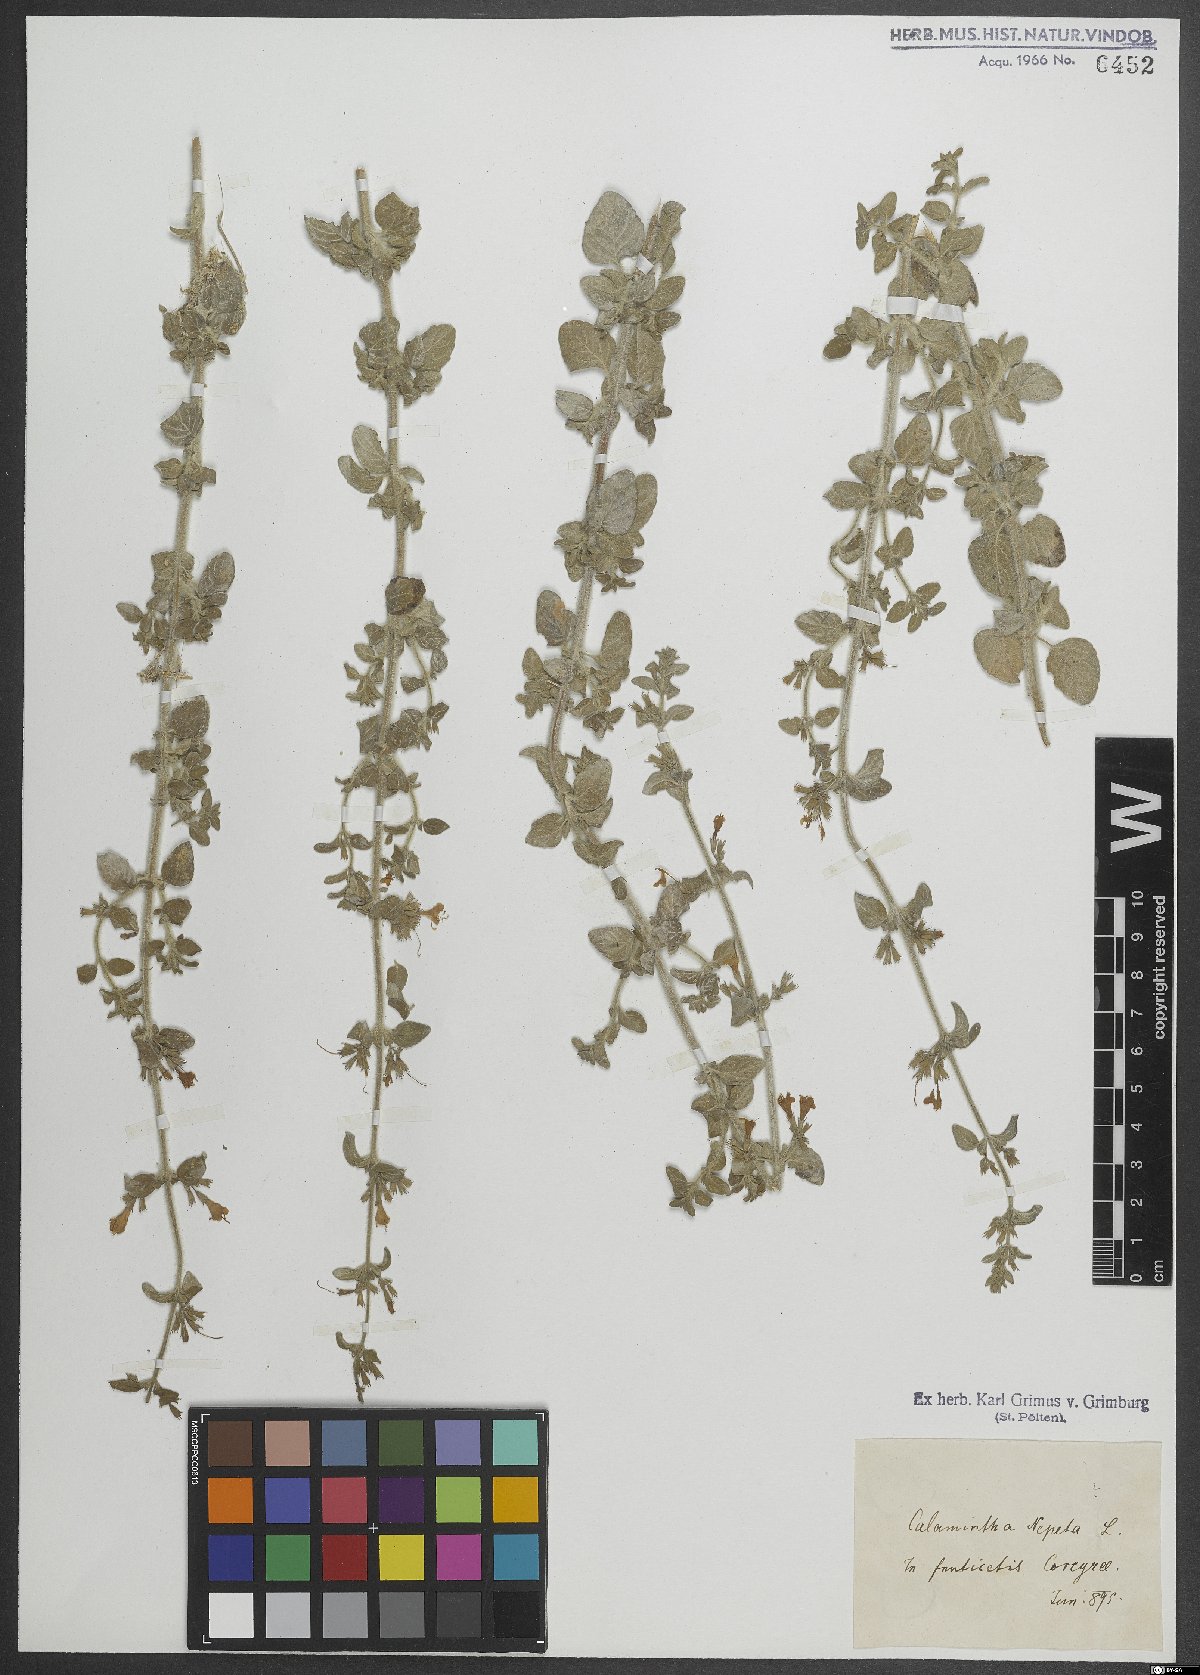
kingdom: Plantae
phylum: Tracheophyta
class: Magnoliopsida
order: Lamiales
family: Lamiaceae
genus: Clinopodium
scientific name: Clinopodium nepeta
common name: Lesser calamint
